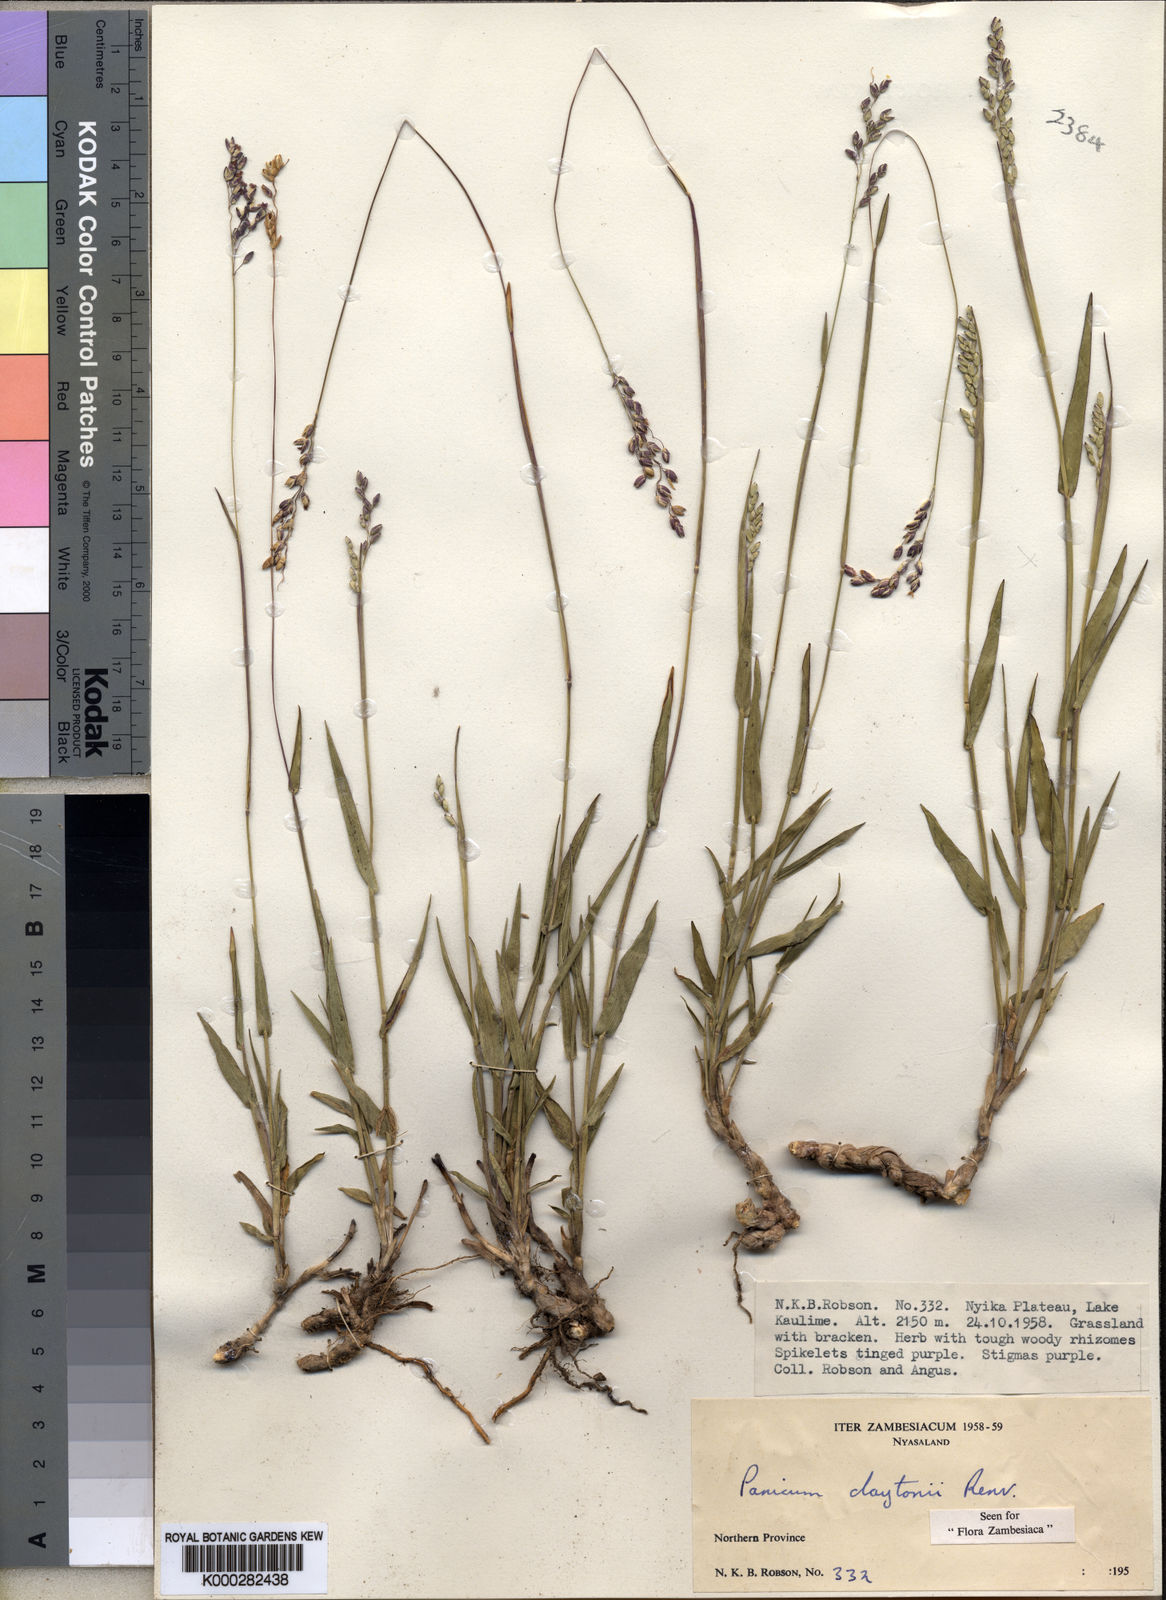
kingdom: Plantae
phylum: Tracheophyta
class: Liliopsida
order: Poales
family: Poaceae
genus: Adenochloa
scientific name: Adenochloa claytonii
